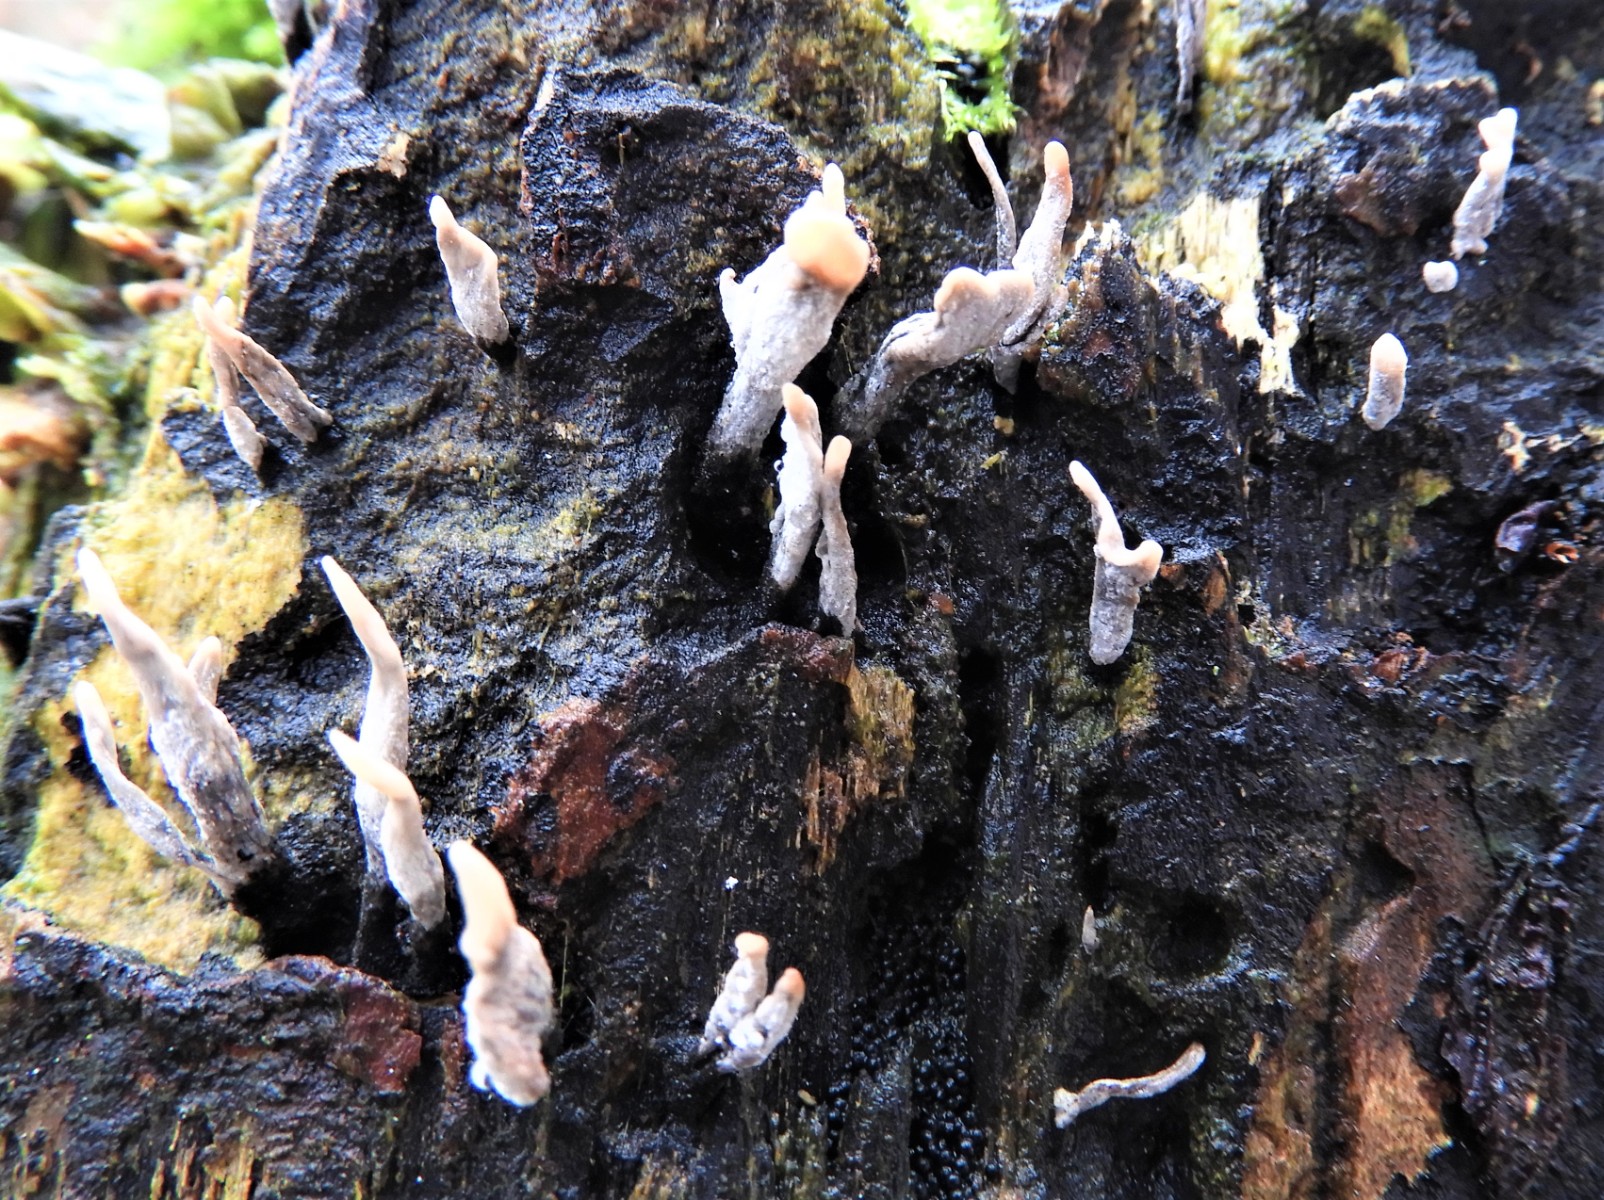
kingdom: Fungi
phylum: Ascomycota
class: Sordariomycetes
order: Xylariales
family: Xylariaceae
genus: Xylaria
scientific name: Xylaria hypoxylon
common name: grenet stødsvamp
